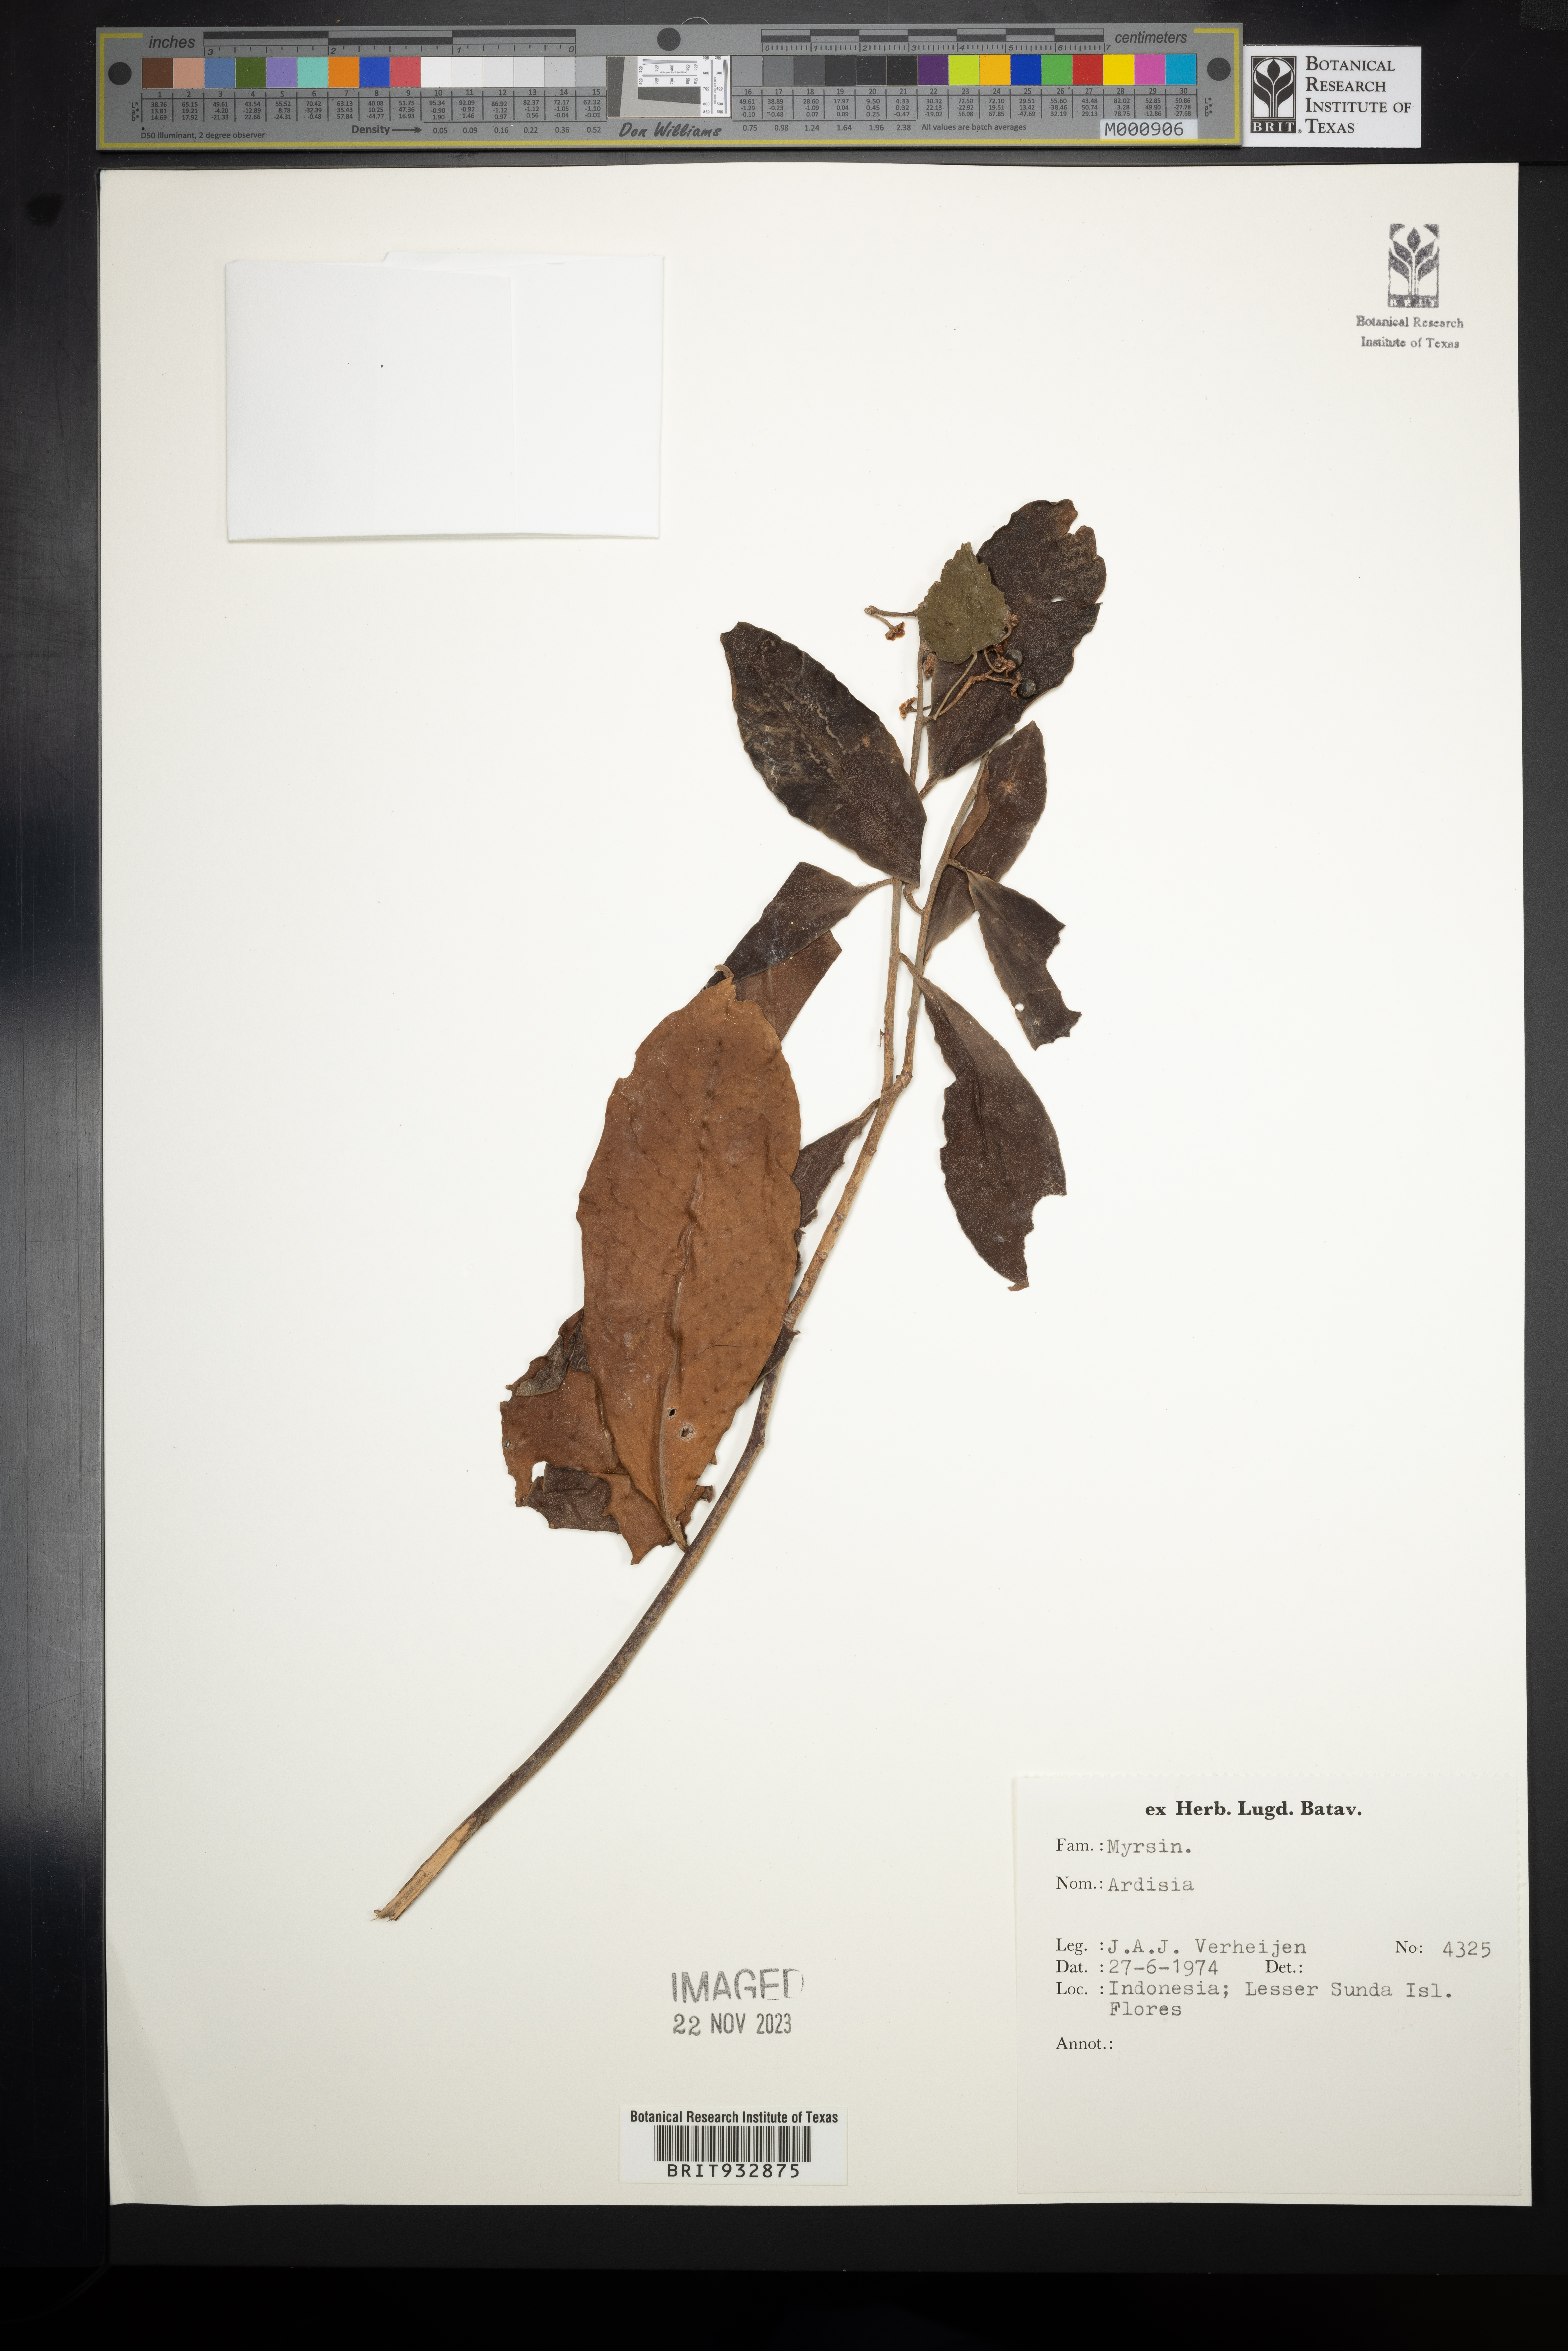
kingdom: Plantae
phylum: Tracheophyta
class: Magnoliopsida
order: Ericales
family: Primulaceae
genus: Ardisia
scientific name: Ardisia
